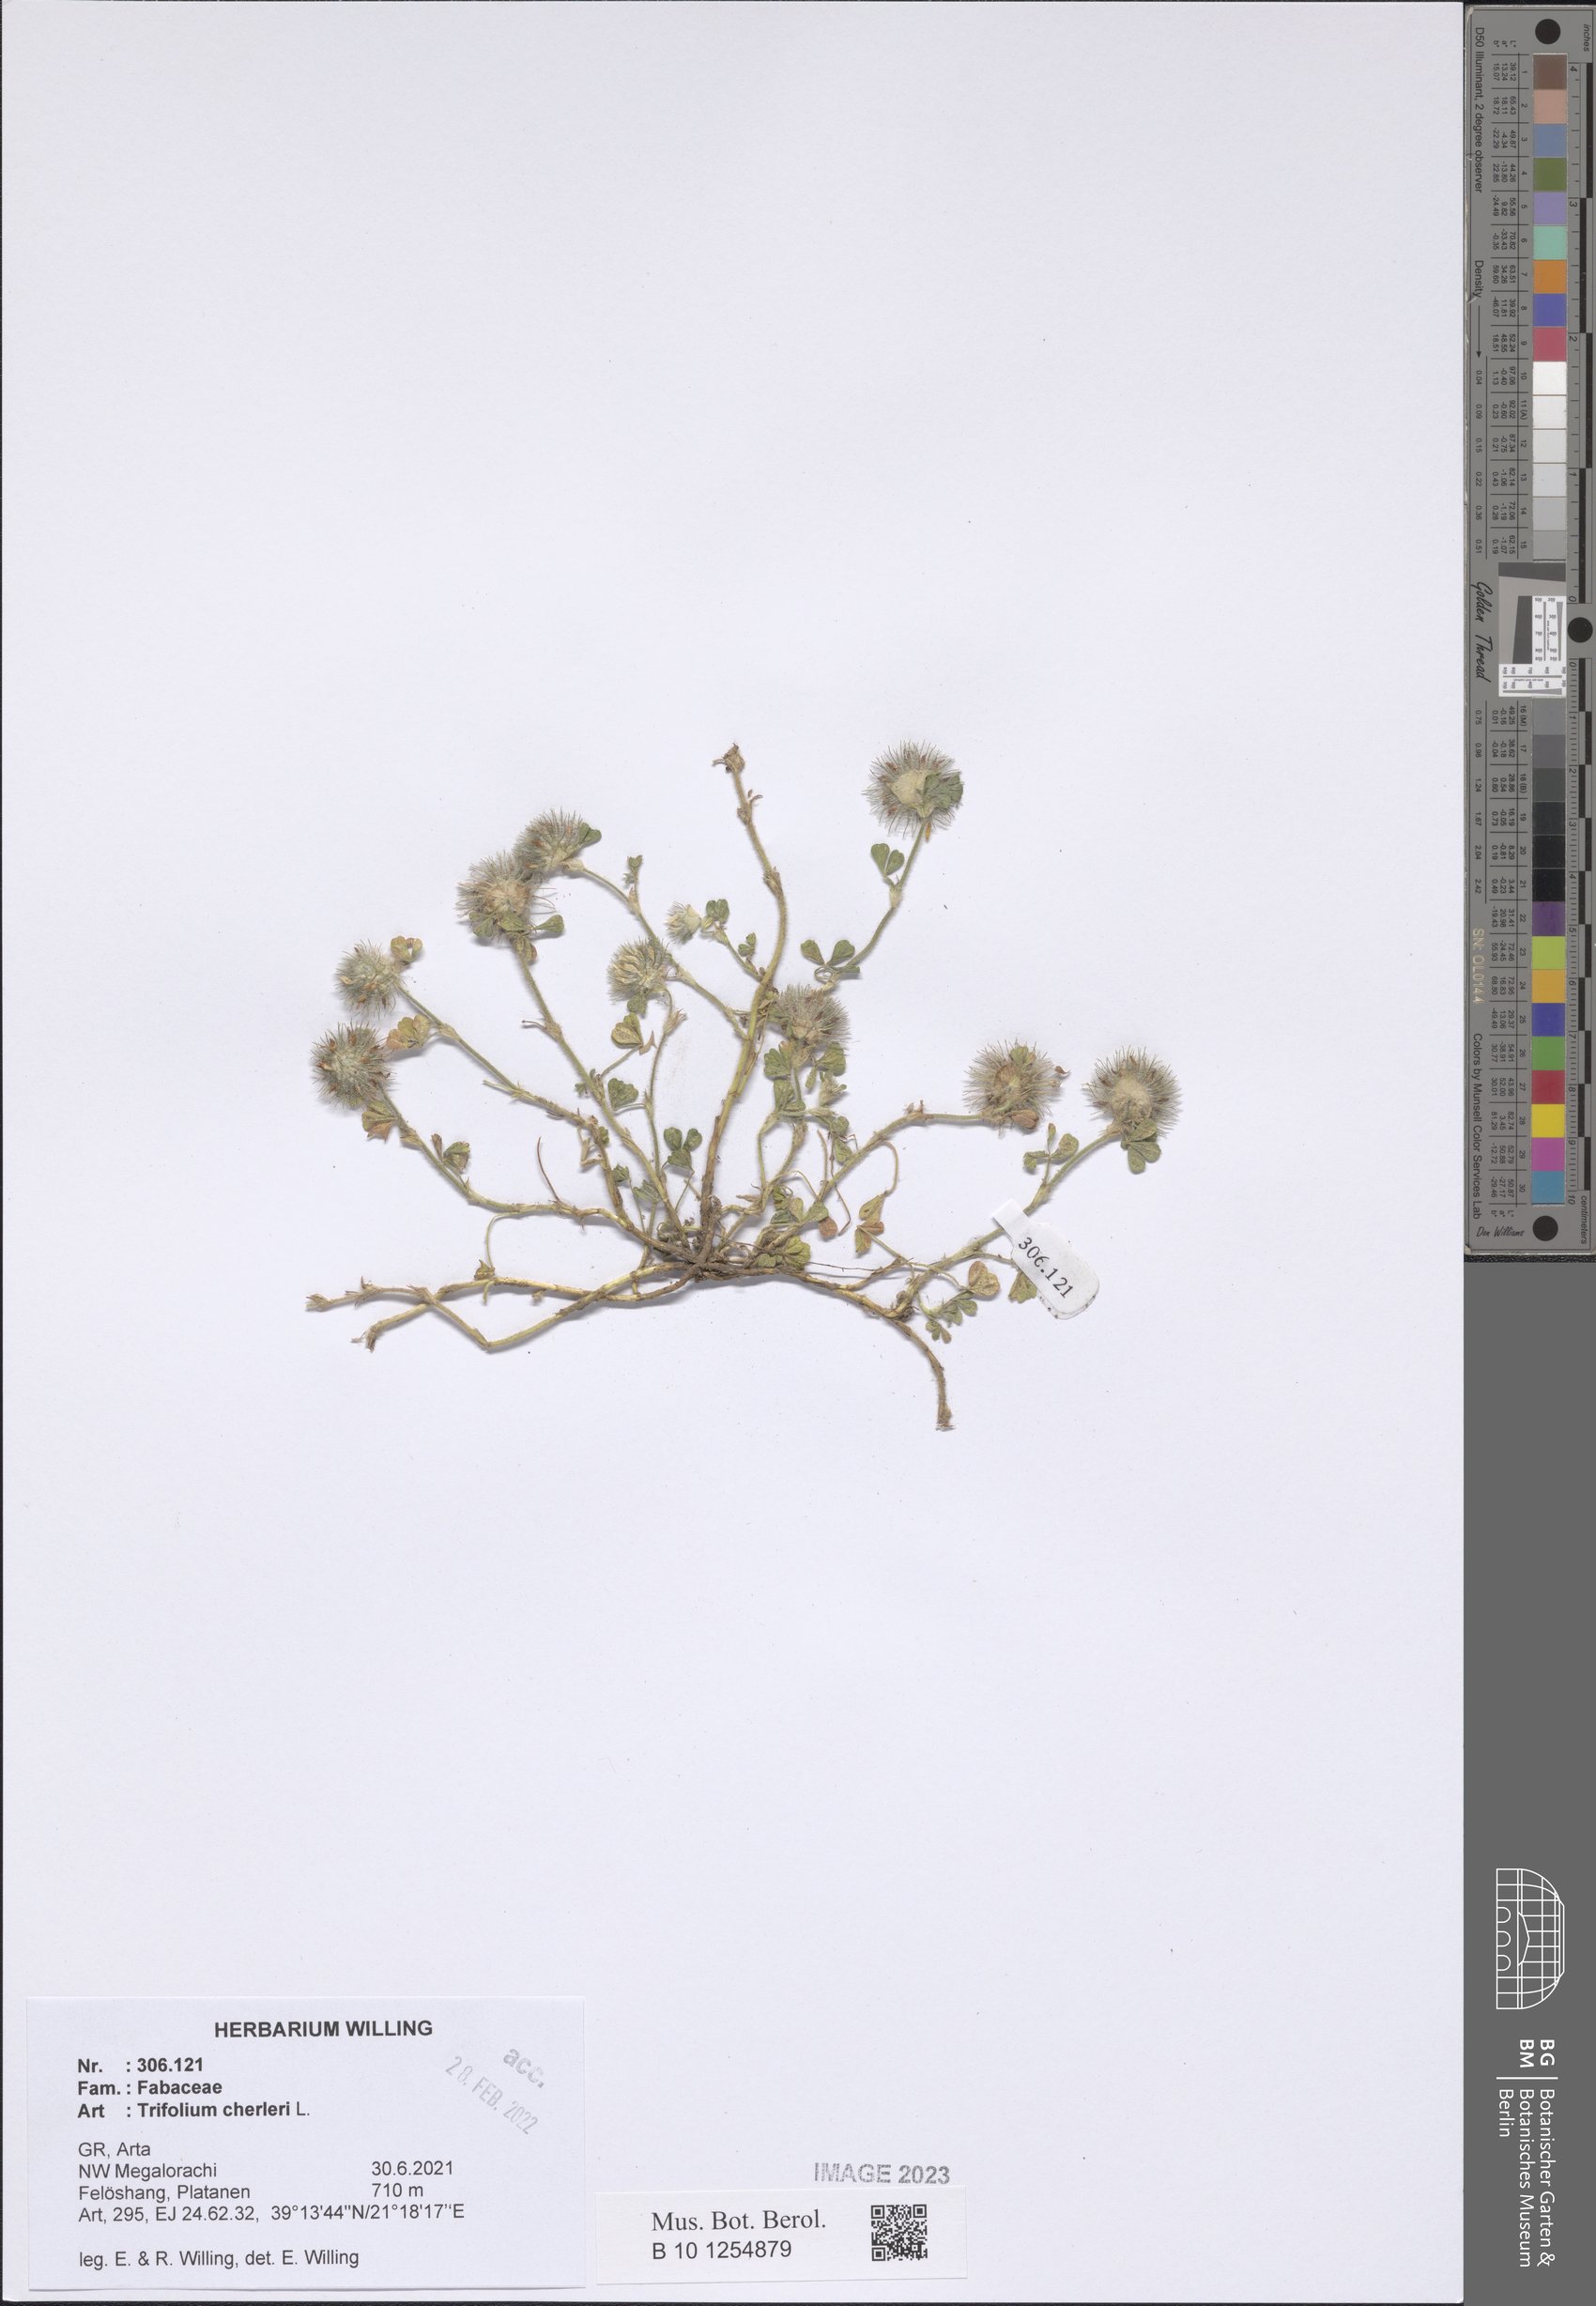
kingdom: Plantae
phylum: Tracheophyta
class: Magnoliopsida
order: Fabales
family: Fabaceae
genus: Trifolium
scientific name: Trifolium cherleri
